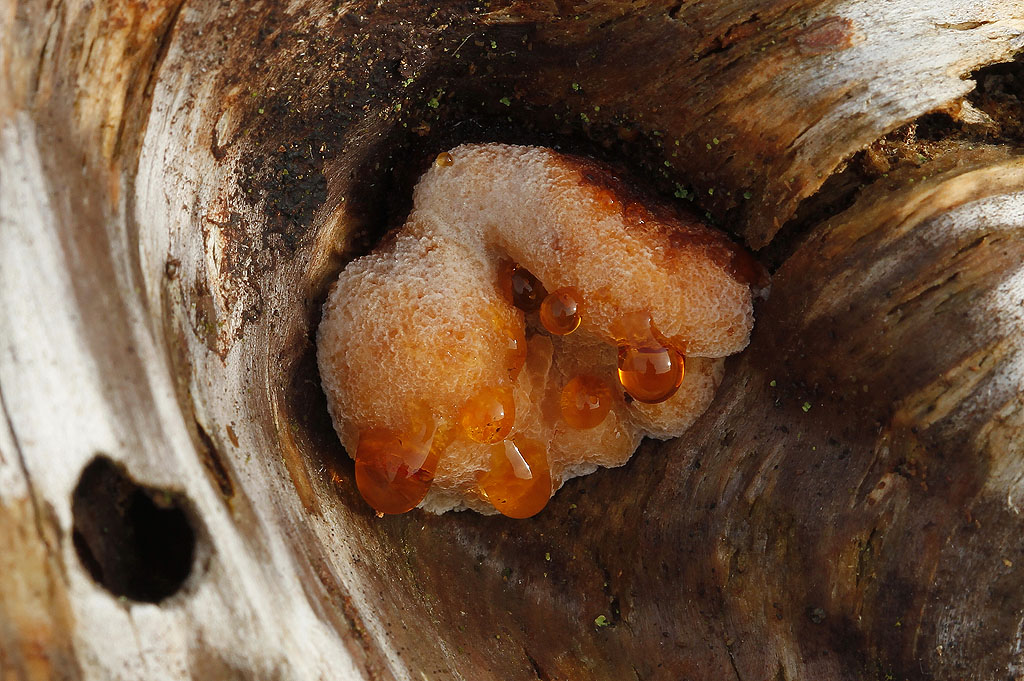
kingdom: Fungi
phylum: Basidiomycota
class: Agaricomycetes
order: Polyporales
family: Ischnodermataceae
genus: Ischnoderma
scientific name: Ischnoderma benzoinum
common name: gran-tjæreporesvamp
